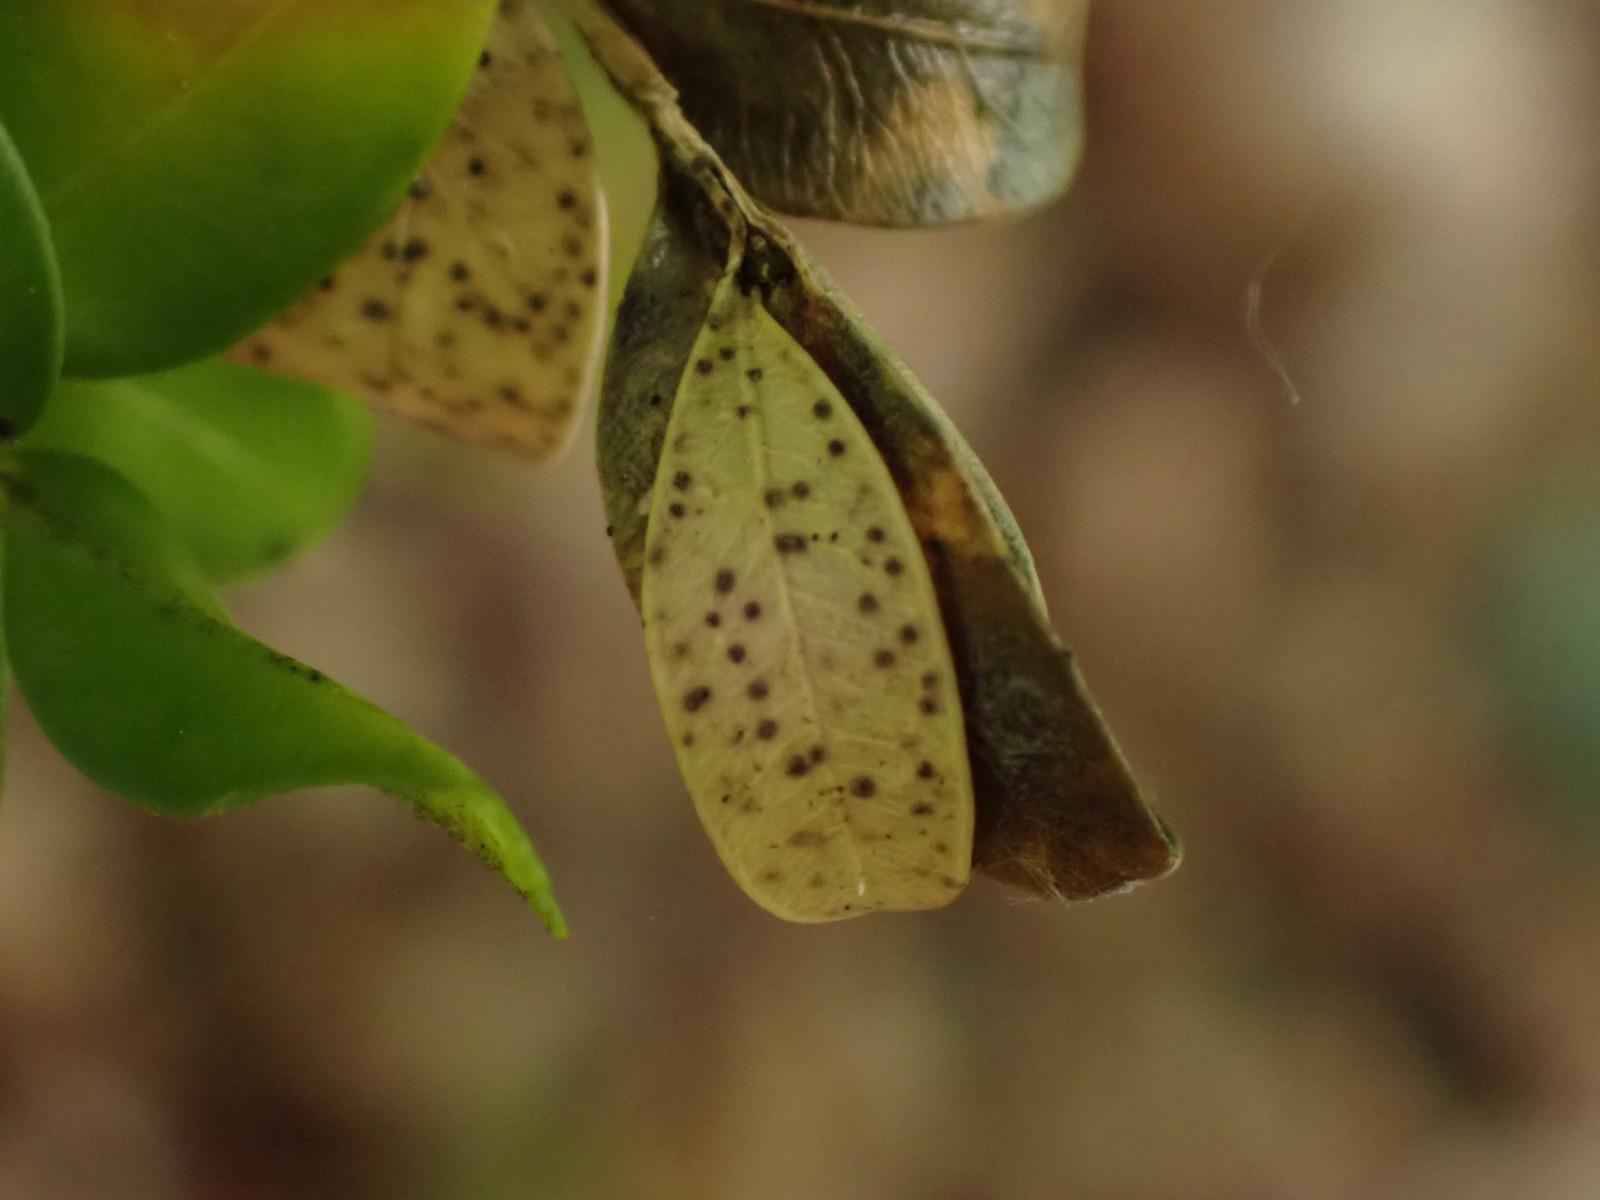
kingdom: Fungi
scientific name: Fungi
